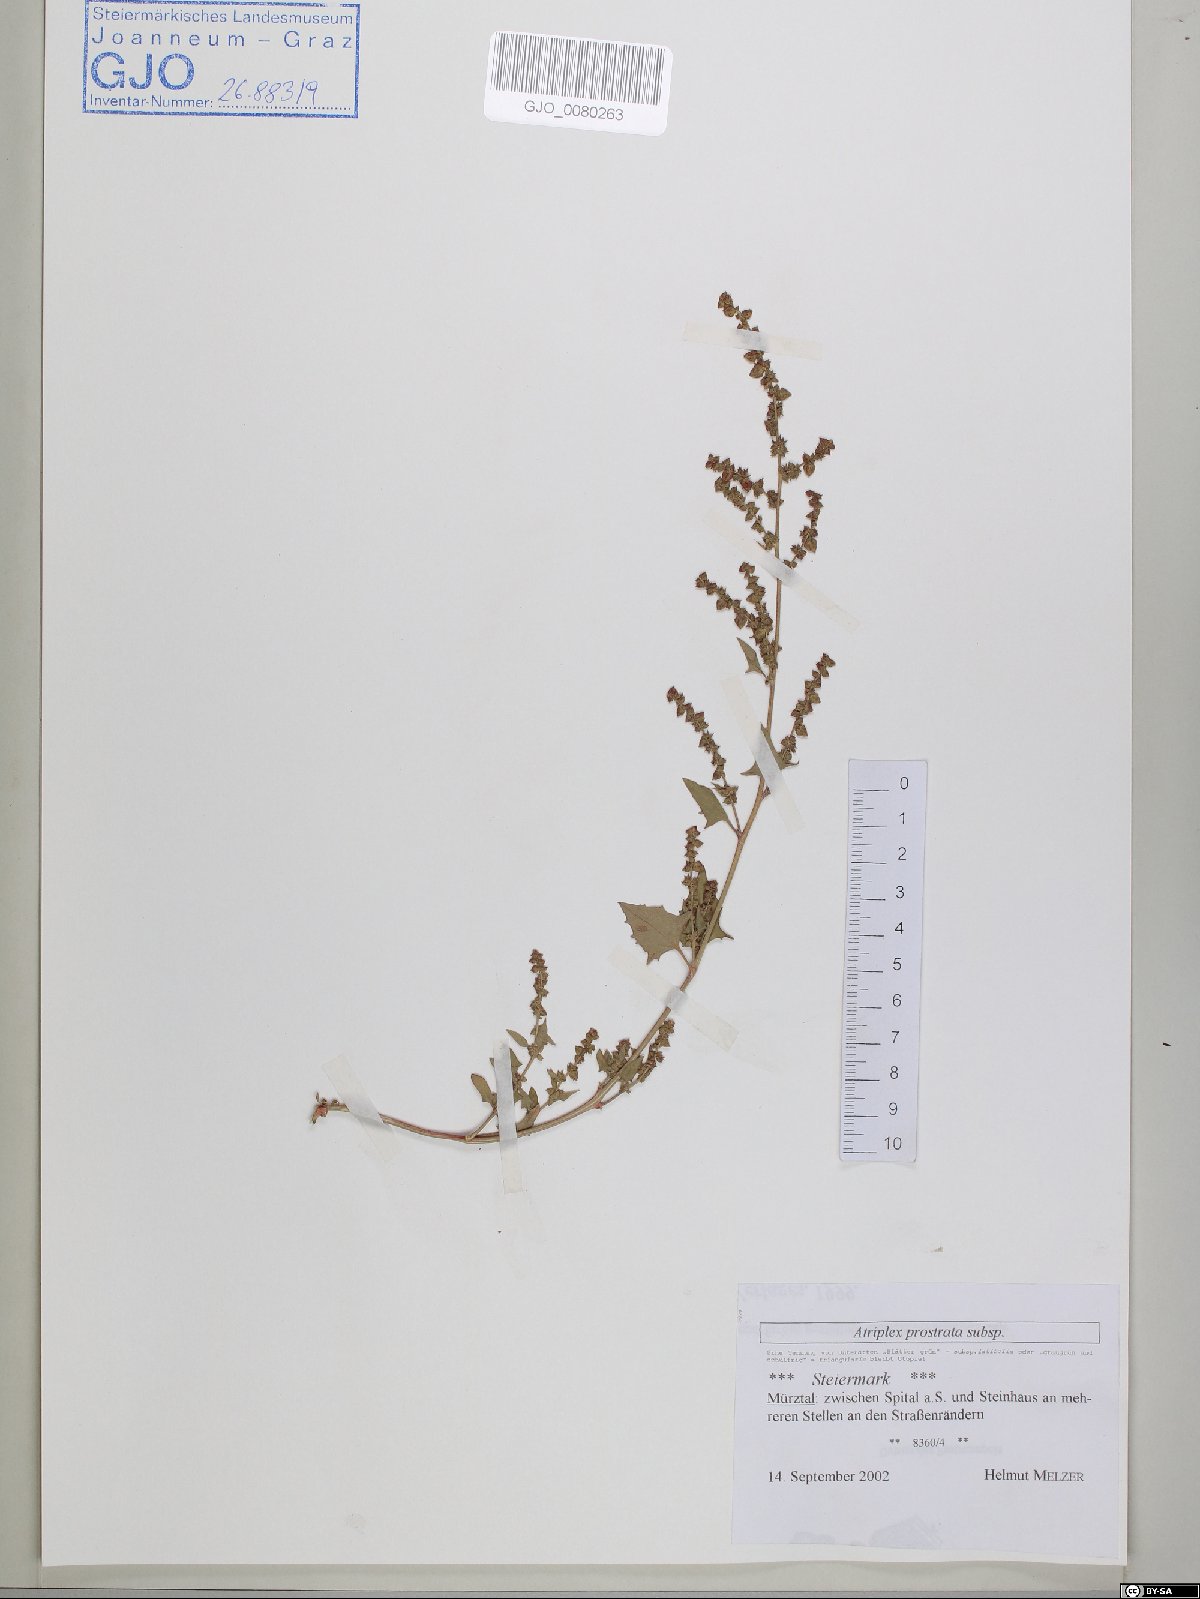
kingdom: Plantae
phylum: Tracheophyta
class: Magnoliopsida
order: Caryophyllales
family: Amaranthaceae
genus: Atriplex
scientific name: Atriplex prostrata
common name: Spear-leaved orache
